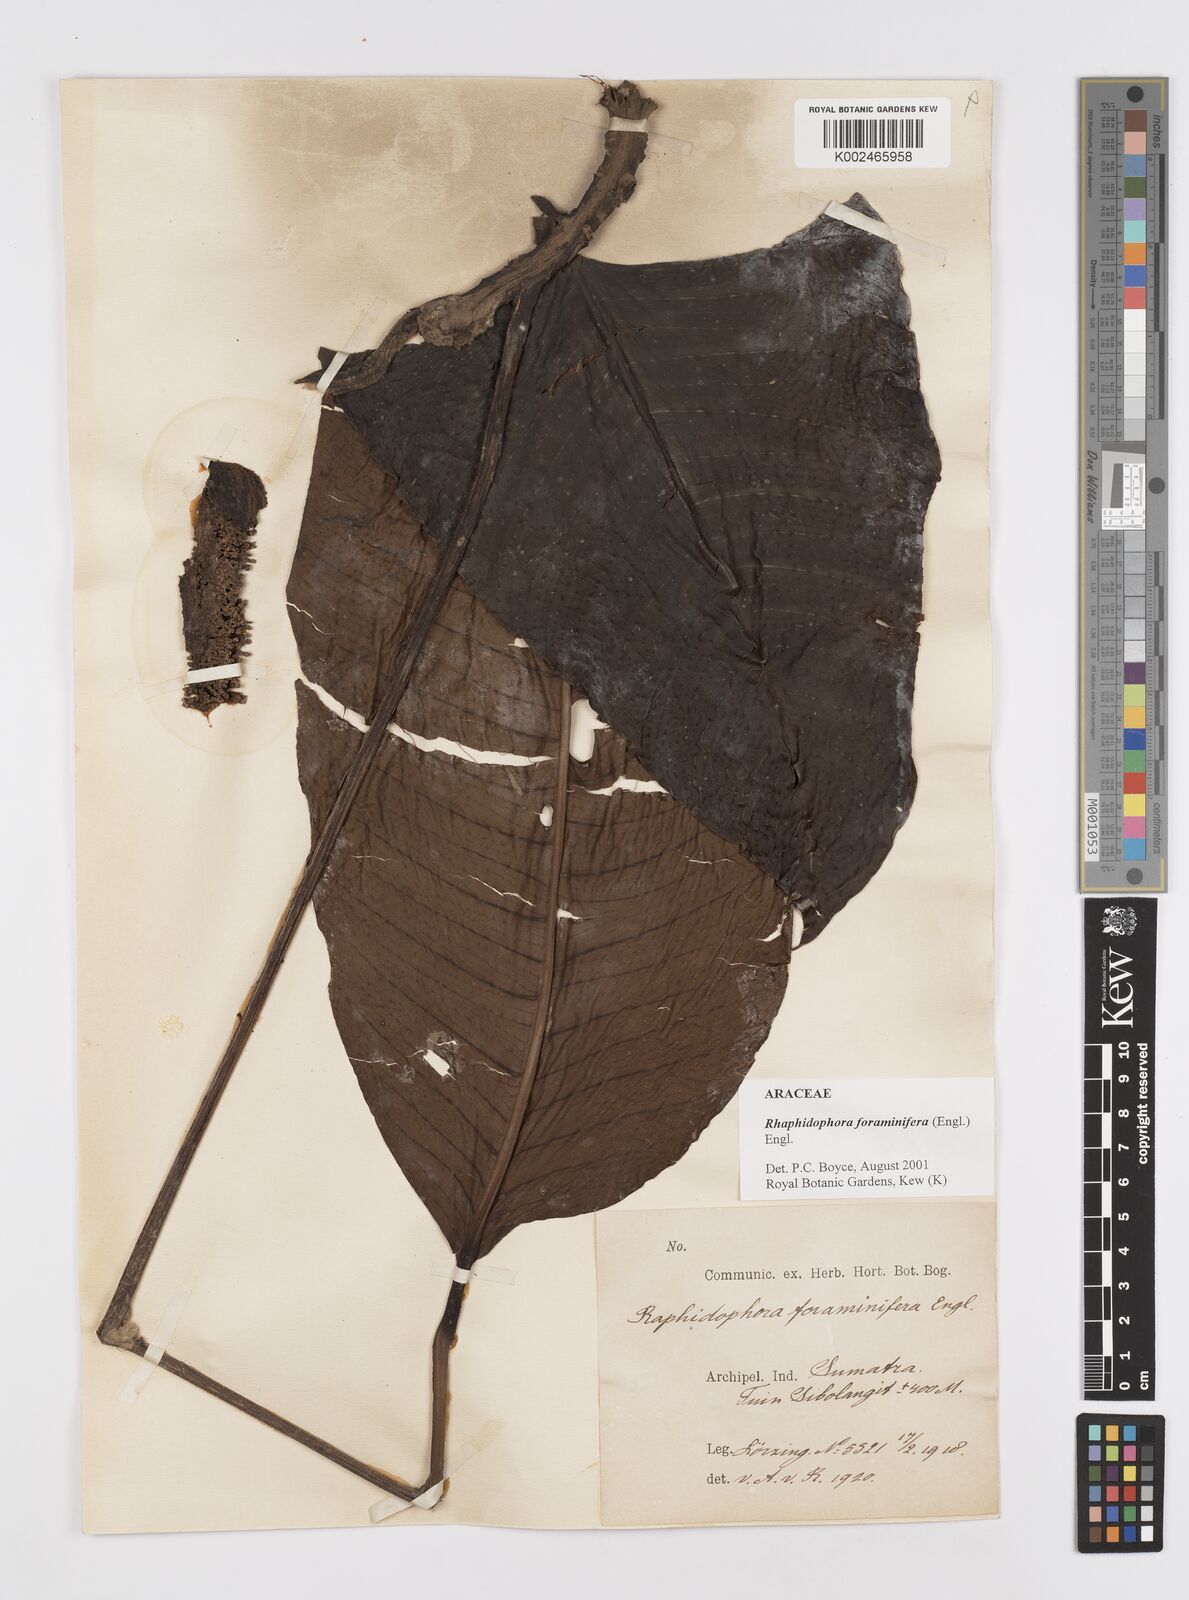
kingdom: Plantae
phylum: Tracheophyta
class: Liliopsida
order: Alismatales
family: Araceae
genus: Rhaphidophora
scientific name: Rhaphidophora foraminifera
